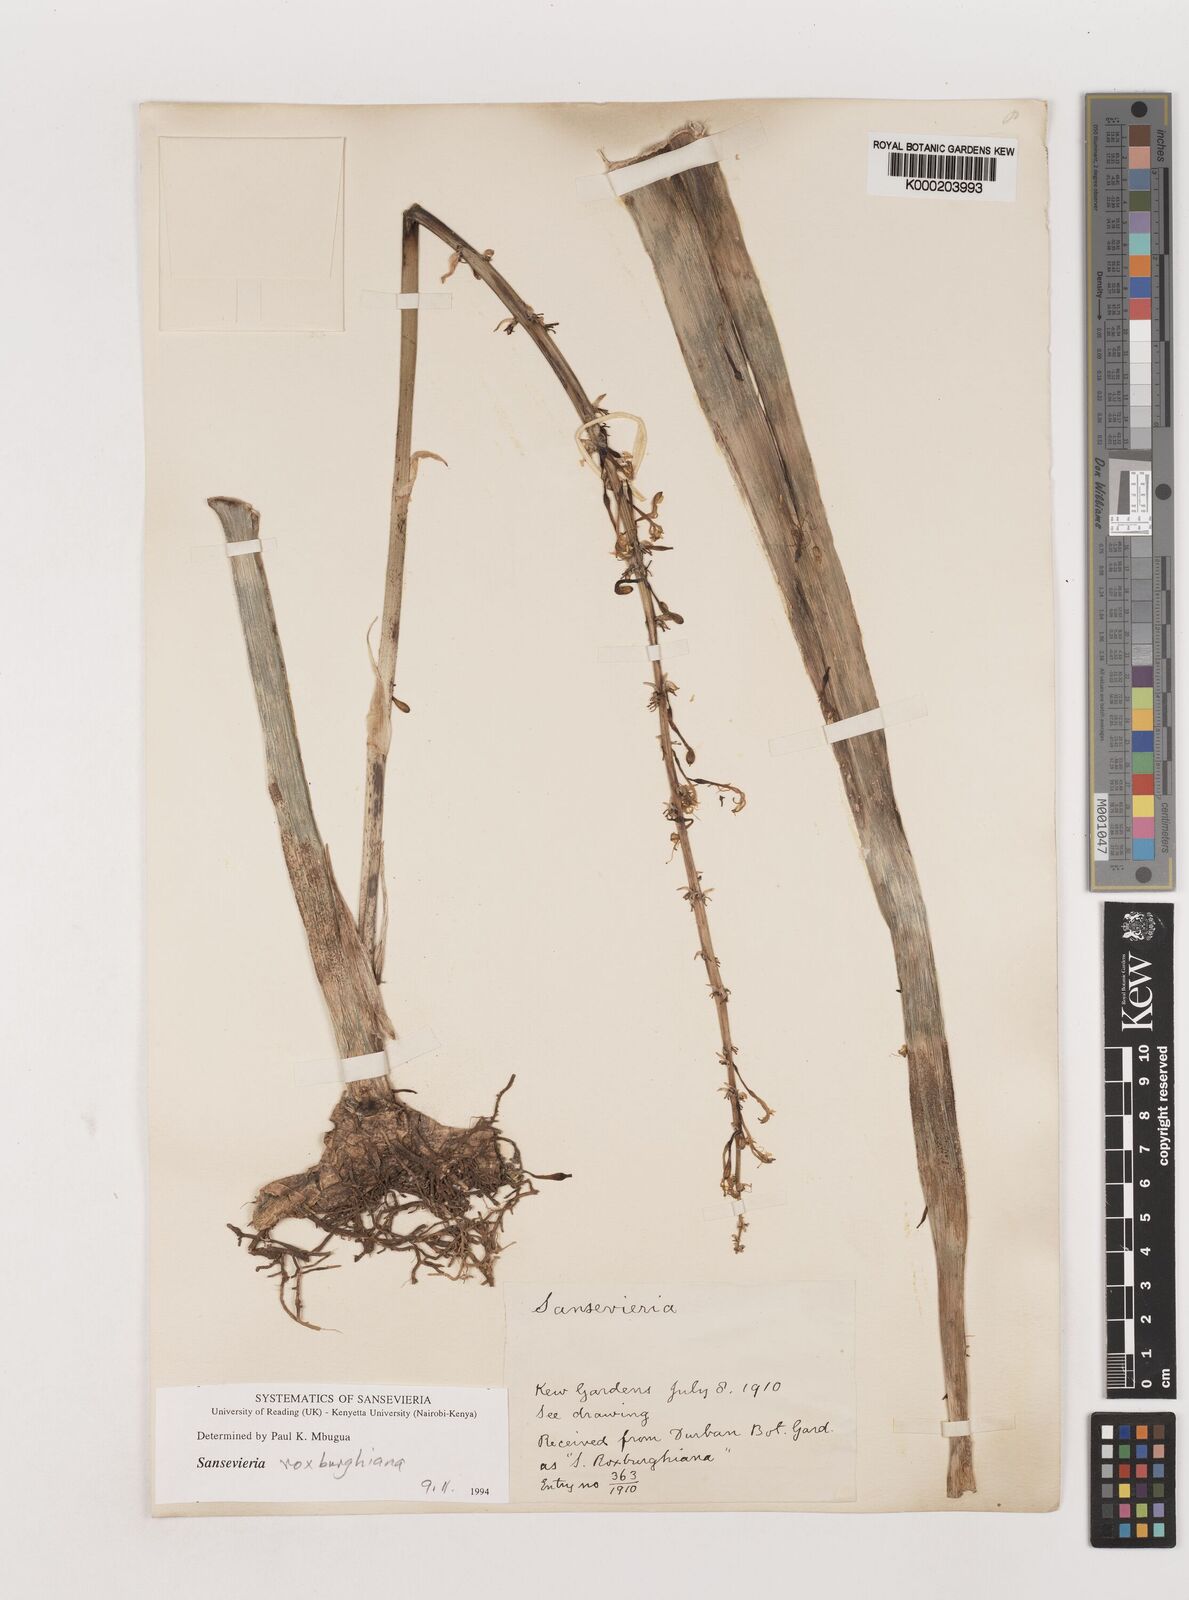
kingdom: Plantae
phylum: Tracheophyta
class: Liliopsida
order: Asparagales
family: Asparagaceae
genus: Dracaena
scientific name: Dracaena
